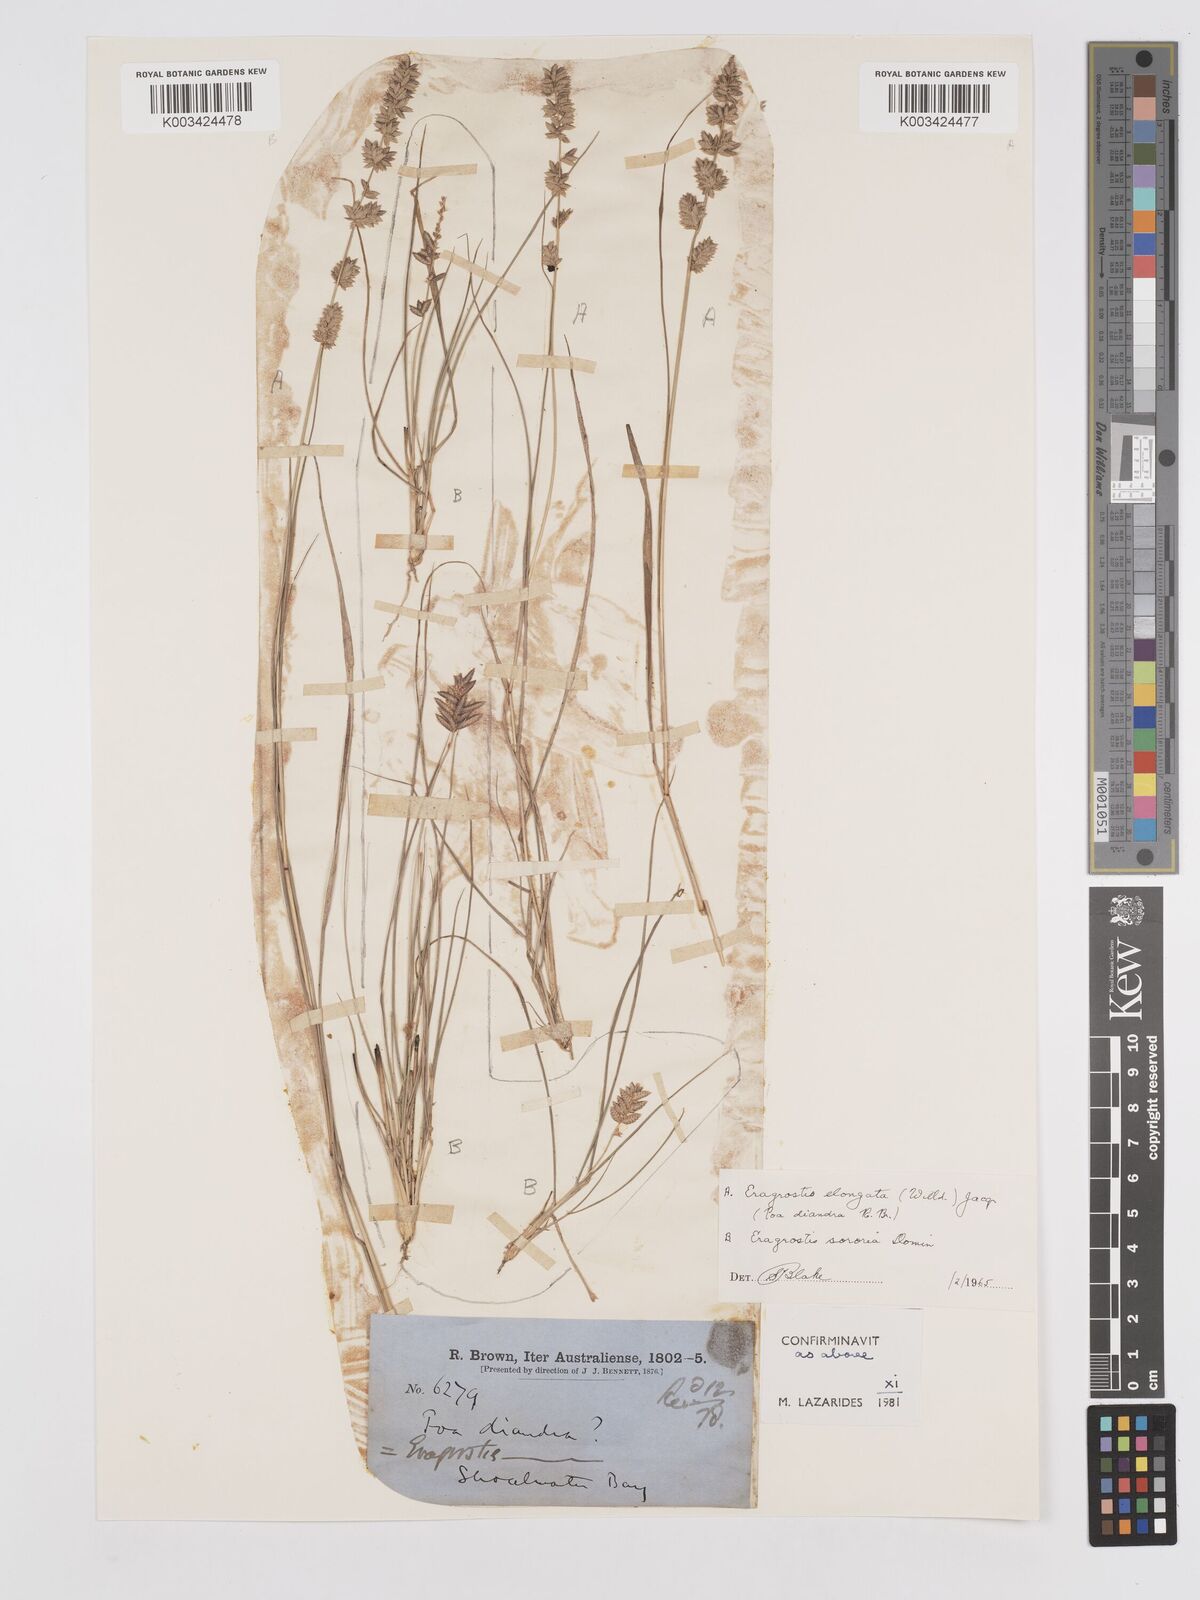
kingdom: Plantae
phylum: Tracheophyta
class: Liliopsida
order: Poales
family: Poaceae
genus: Eragrostis
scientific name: Eragrostis elongata
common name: Long lovegrass
